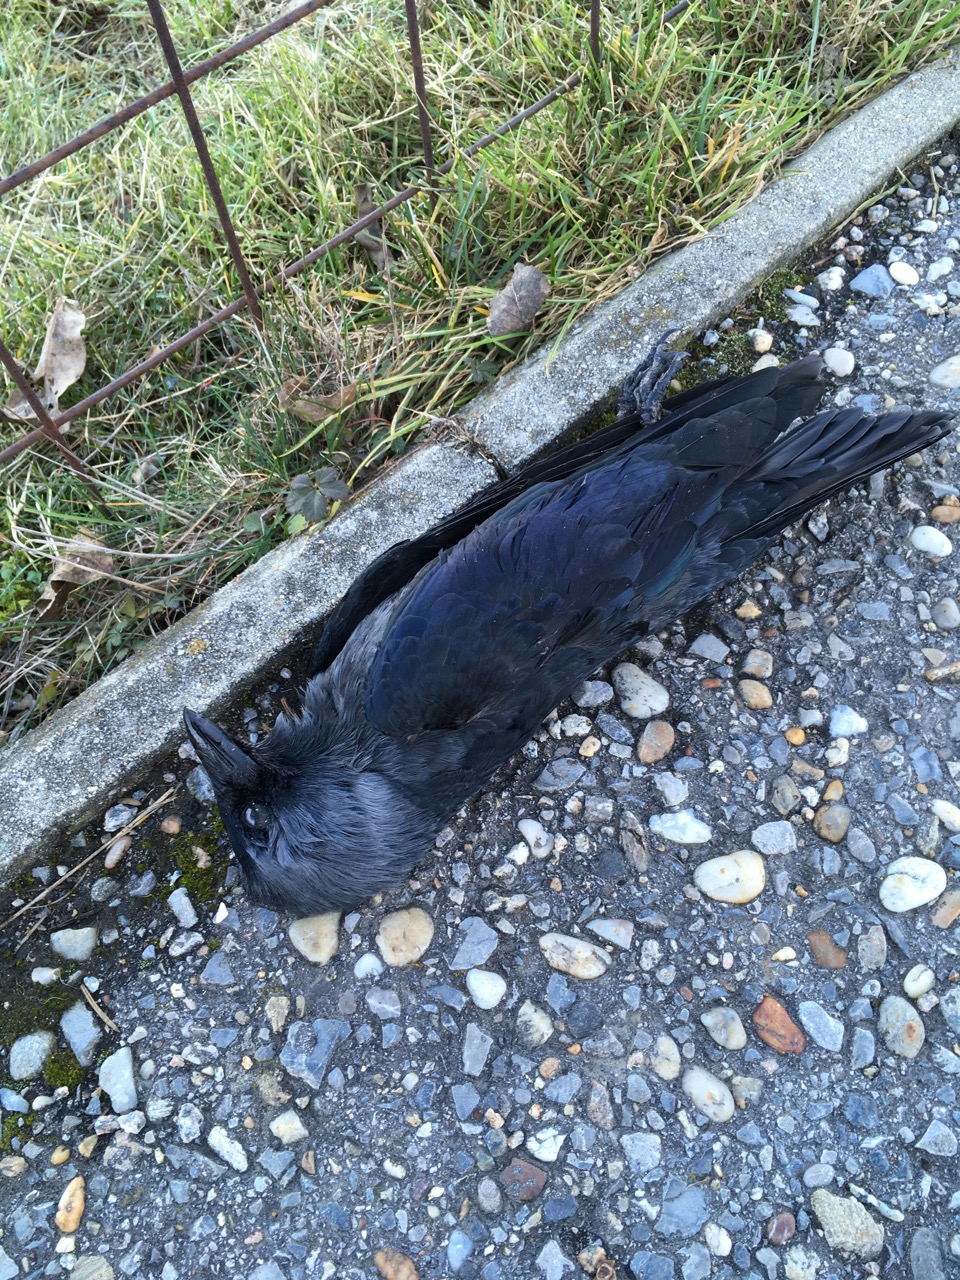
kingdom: Animalia
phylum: Chordata
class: Aves
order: Passeriformes
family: Corvidae
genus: Coloeus
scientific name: Coloeus monedula
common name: Western jackdaw
